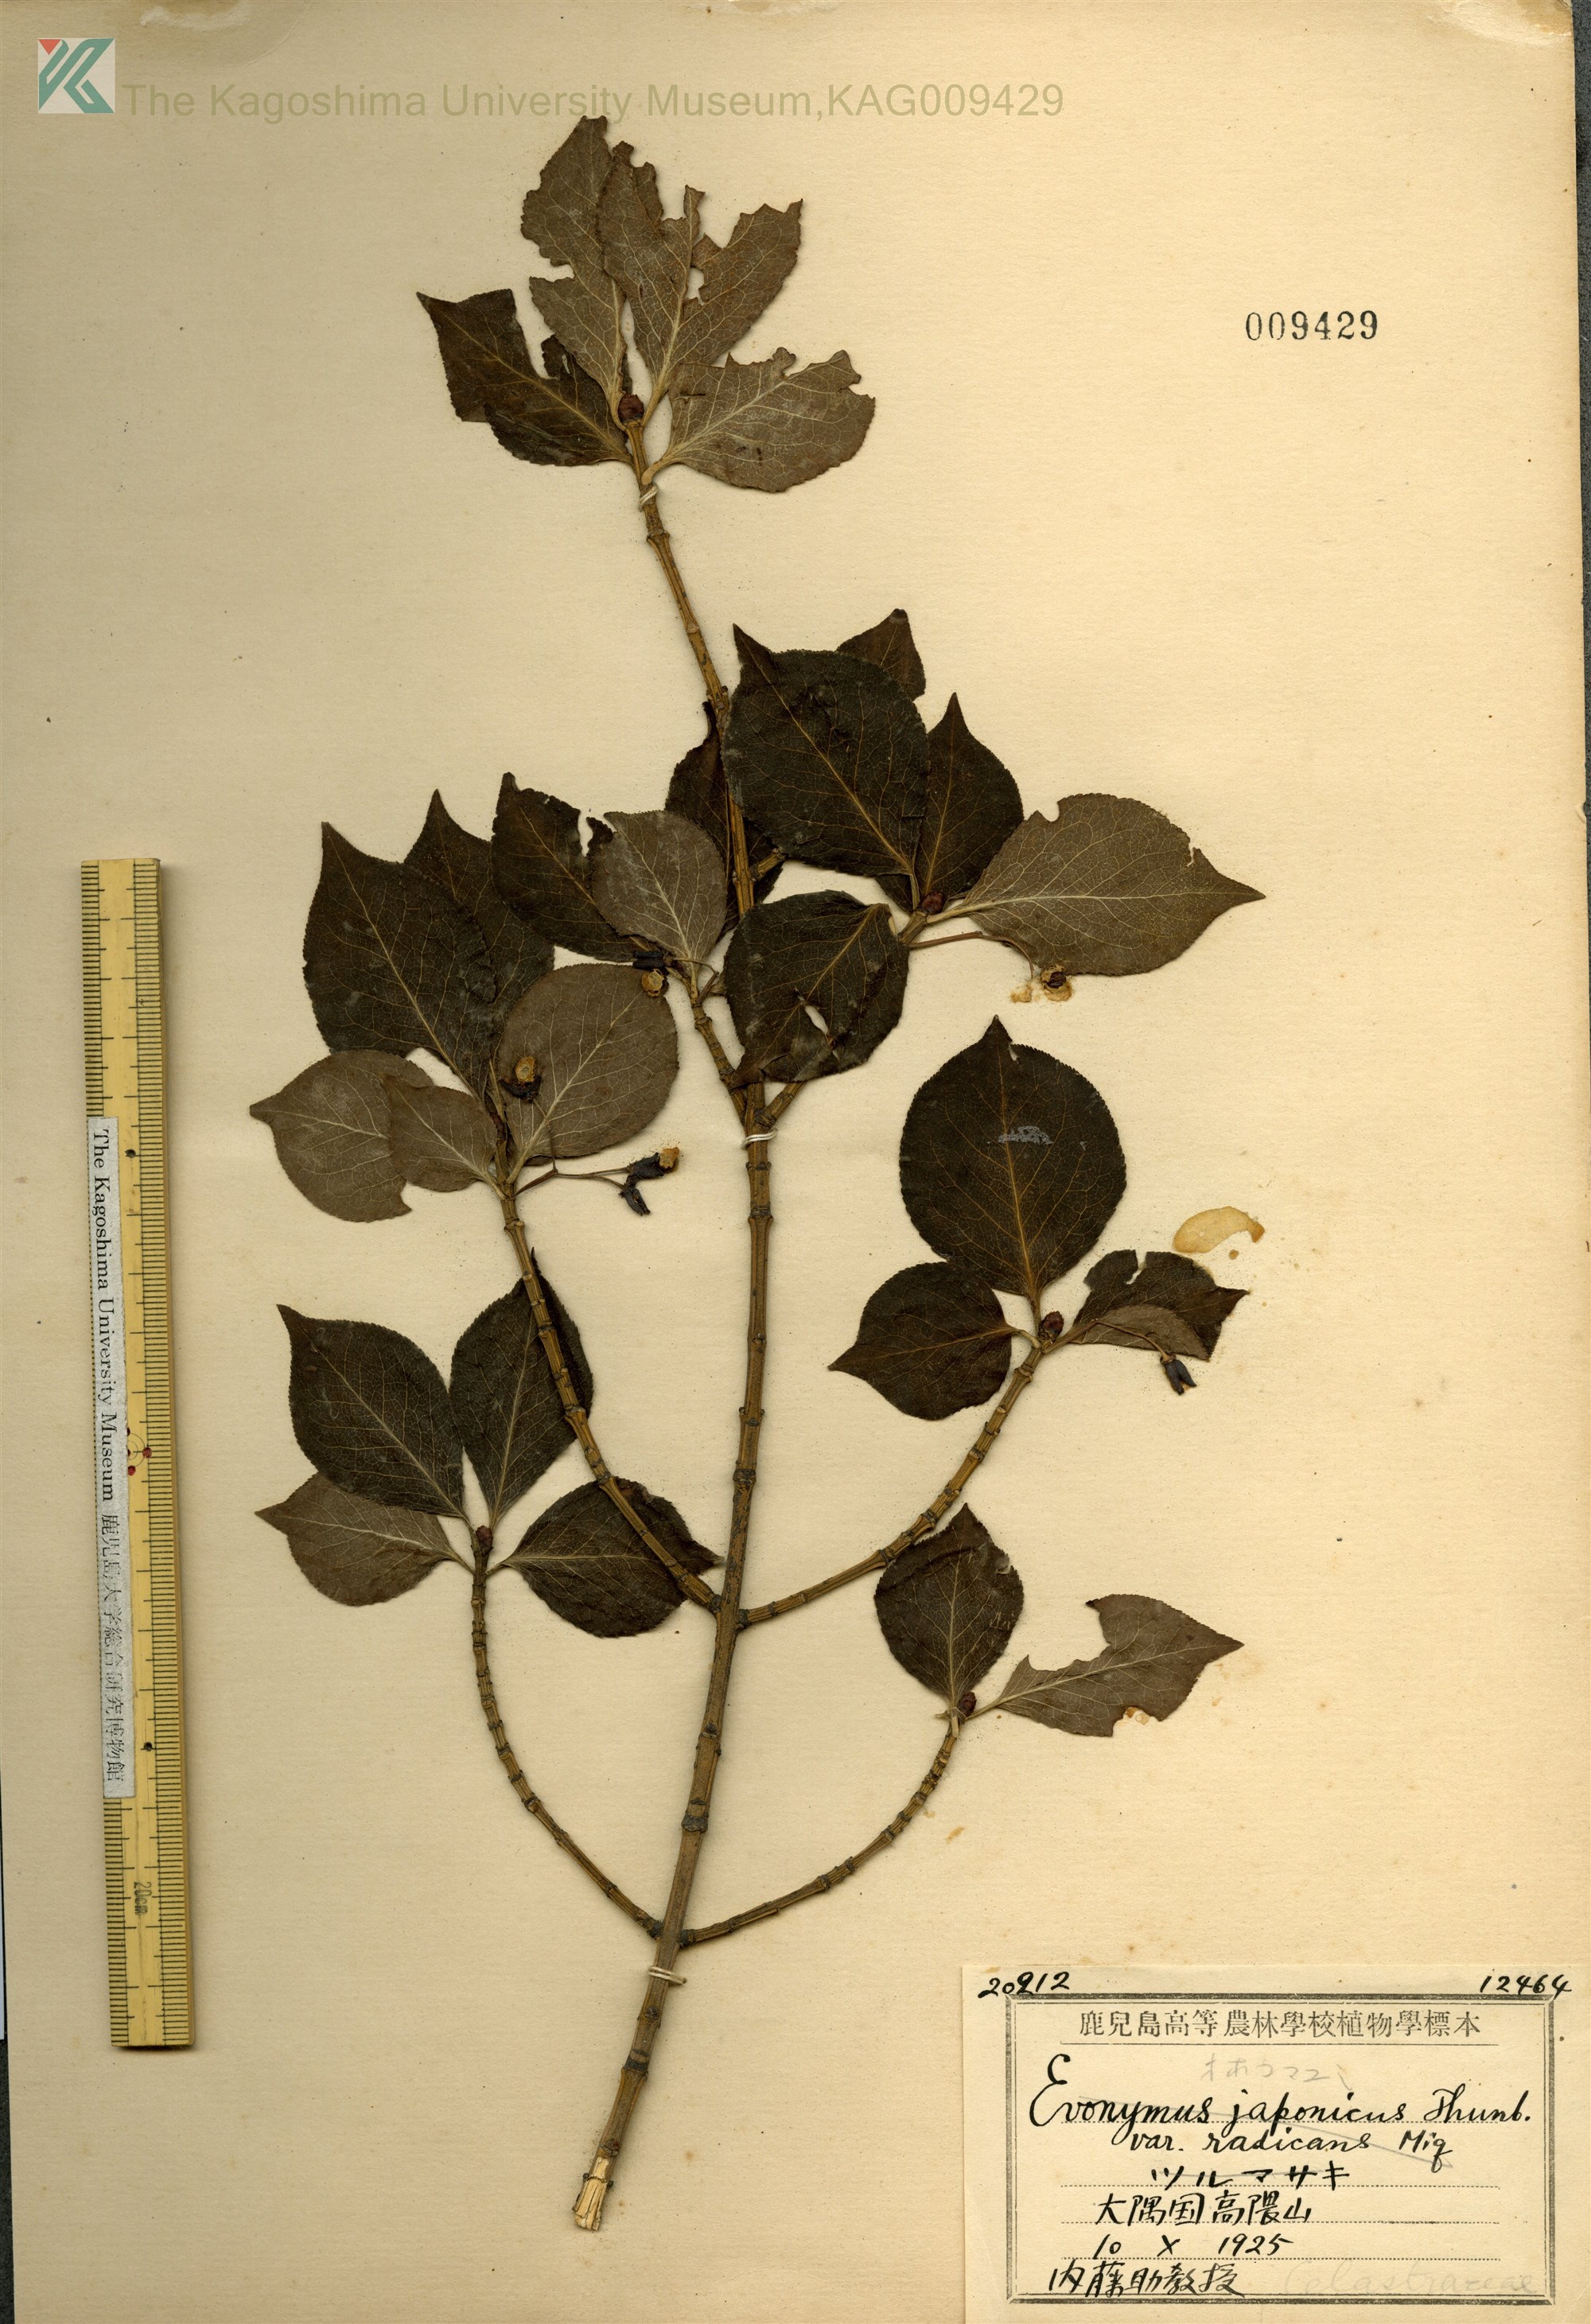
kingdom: Plantae
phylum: Tracheophyta
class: Magnoliopsida
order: Celastrales
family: Celastraceae
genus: Euonymus
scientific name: Euonymus alatus
